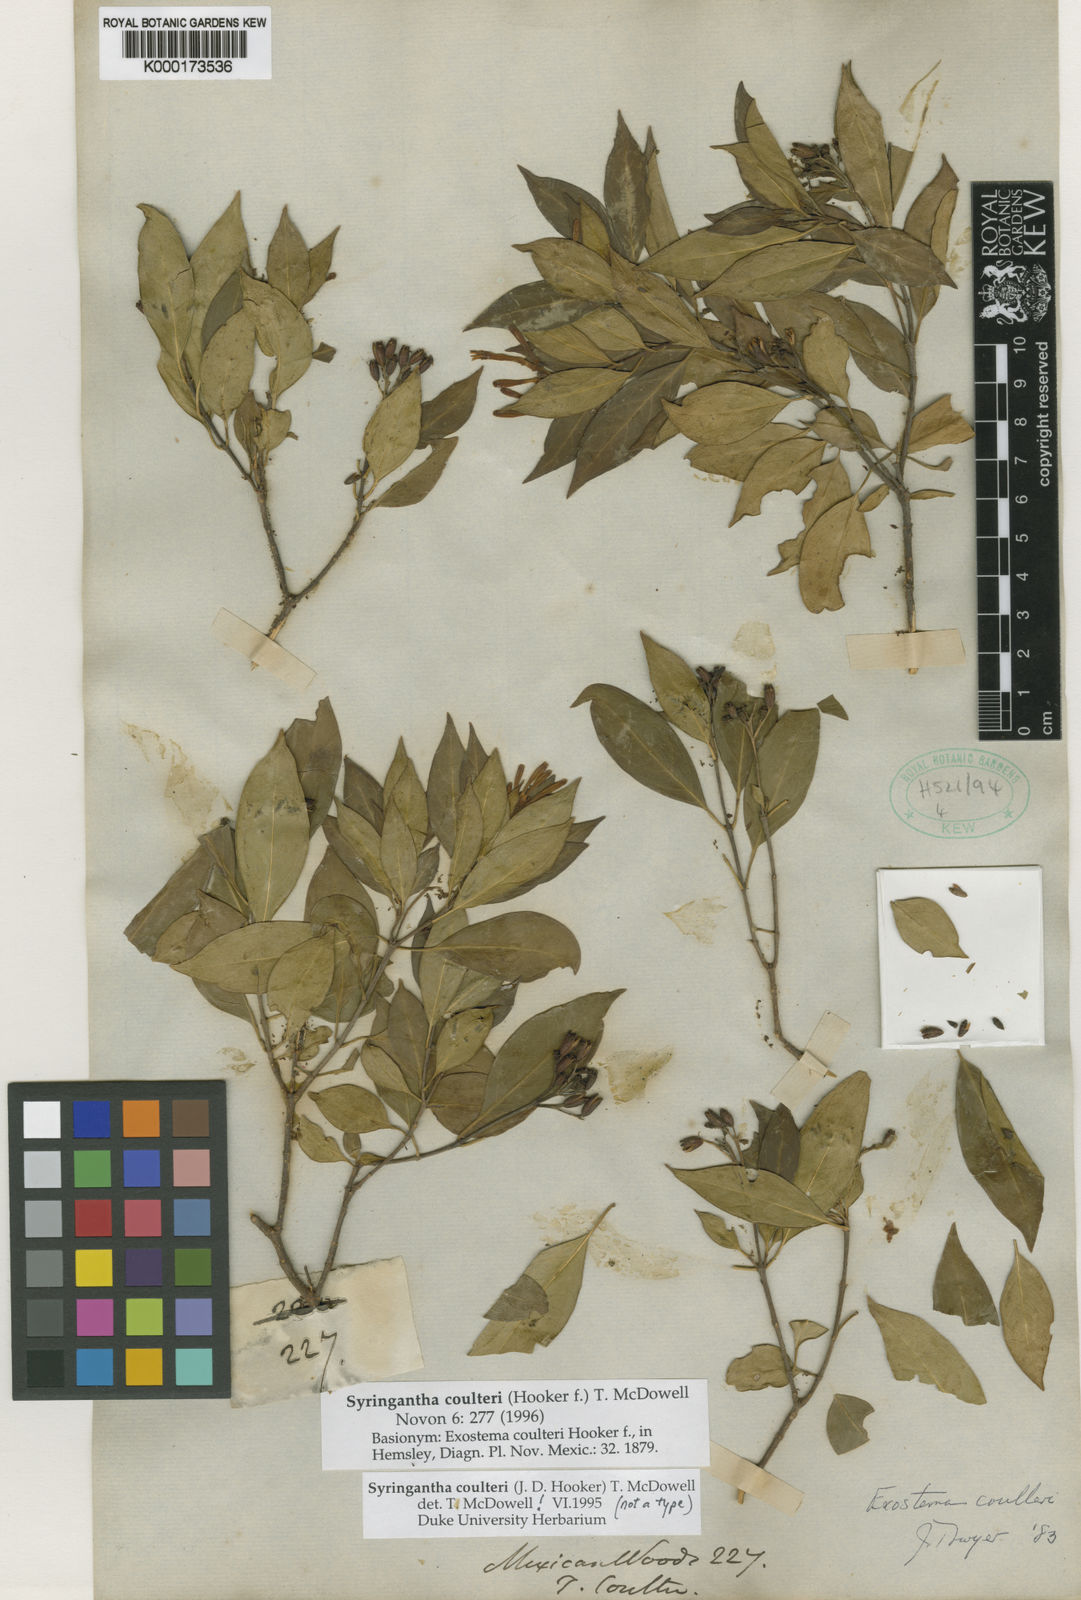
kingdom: Plantae
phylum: Tracheophyta
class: Magnoliopsida
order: Gentianales
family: Rubiaceae
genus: Syringantha
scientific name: Syringantha coulteri
